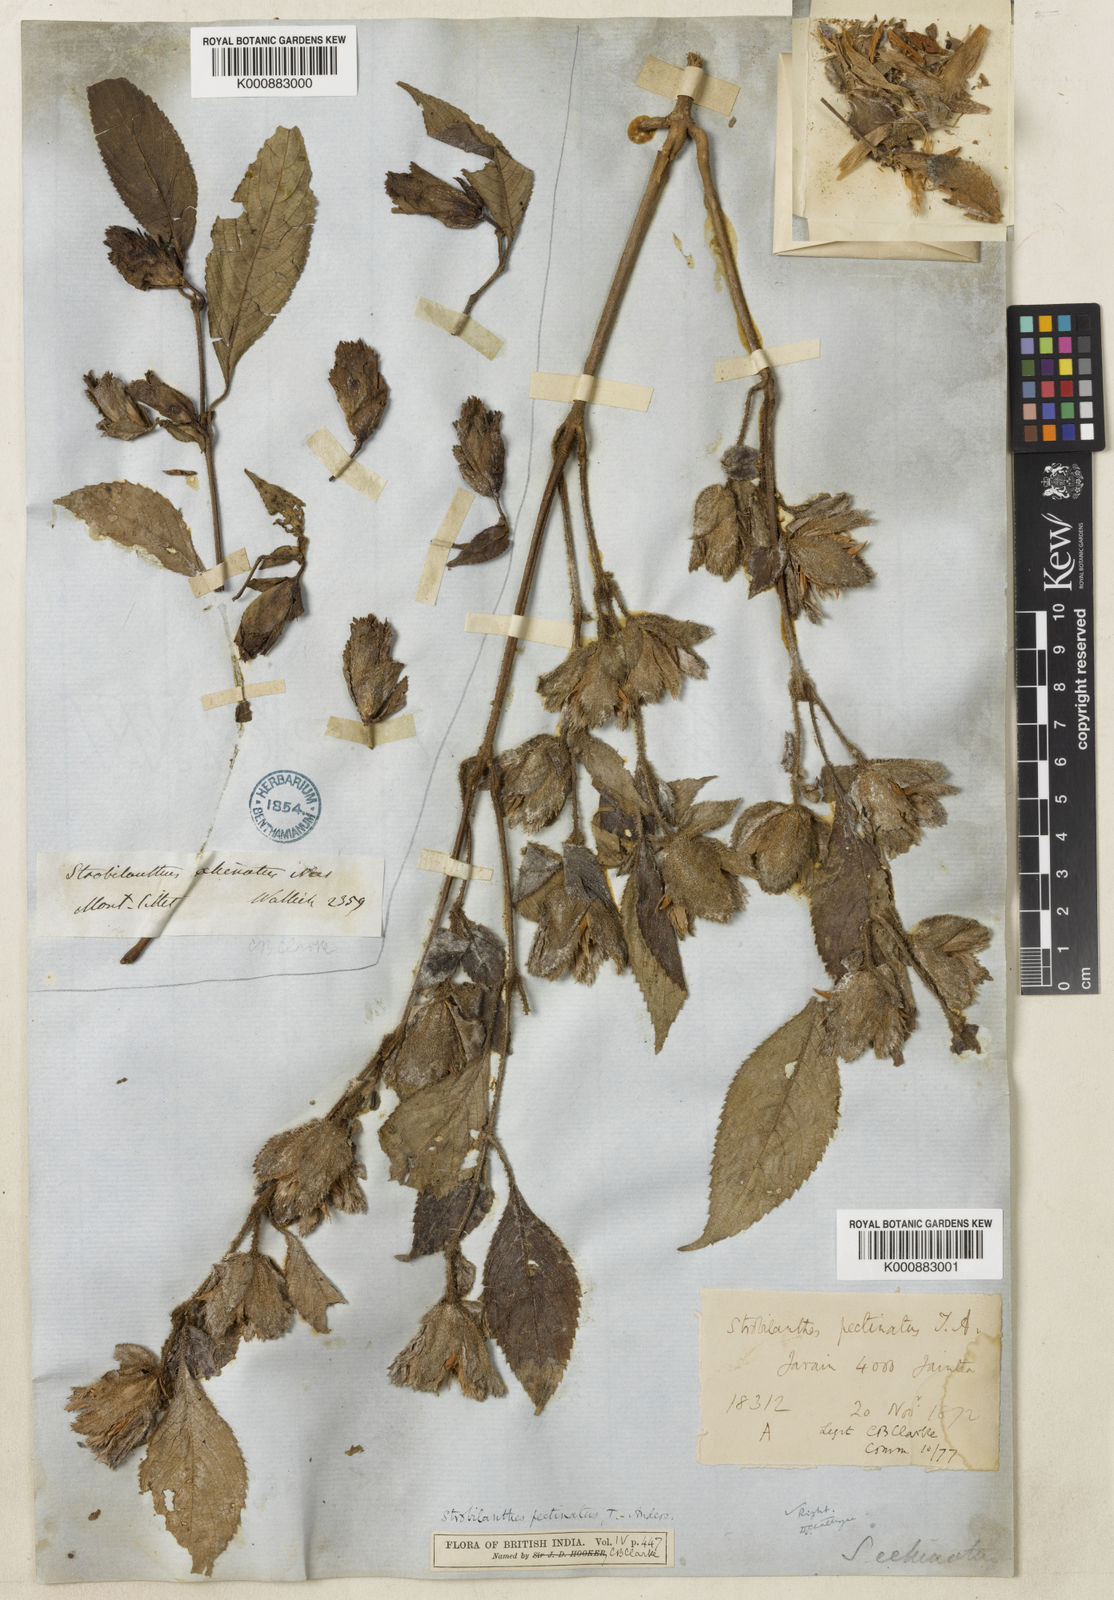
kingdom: Plantae
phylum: Tracheophyta
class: Magnoliopsida
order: Lamiales
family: Acanthaceae
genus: Strobilanthes
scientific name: Strobilanthes echinata
